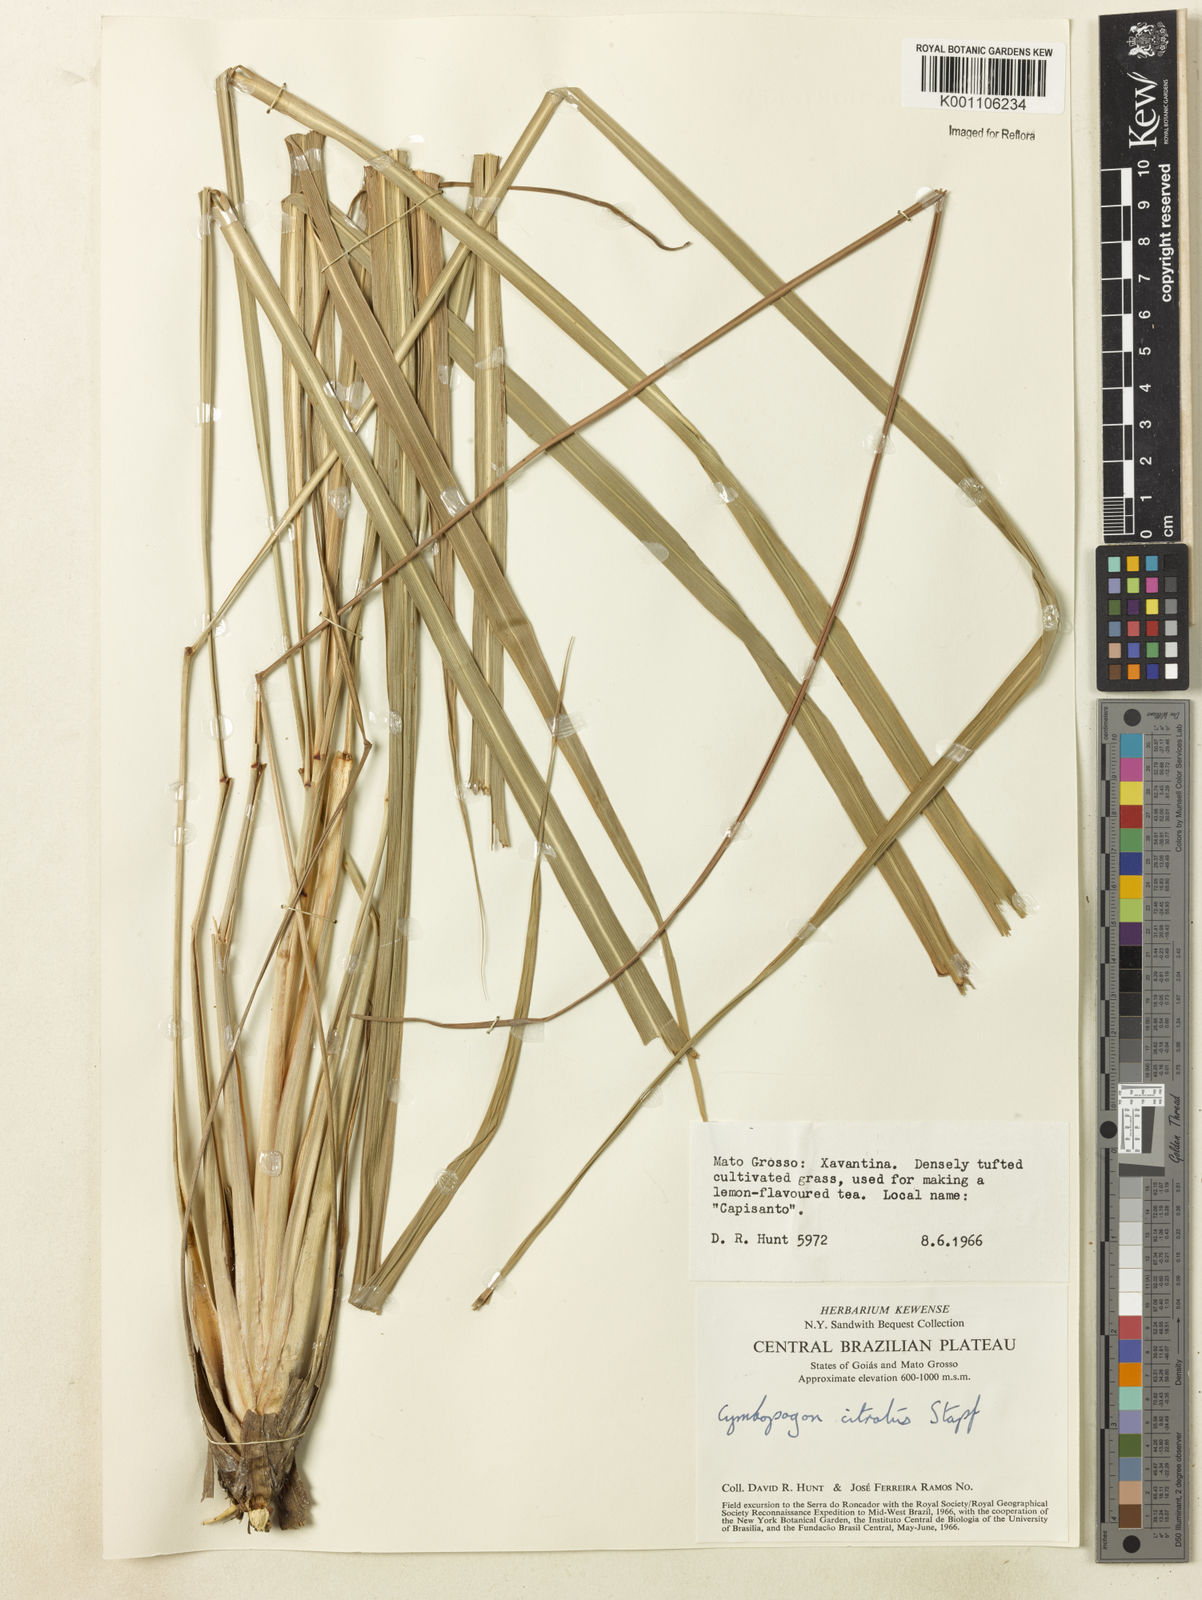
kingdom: Plantae
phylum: Tracheophyta
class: Liliopsida
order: Poales
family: Poaceae
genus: Cymbopogon
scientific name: Cymbopogon citratus
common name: Lemon grass
